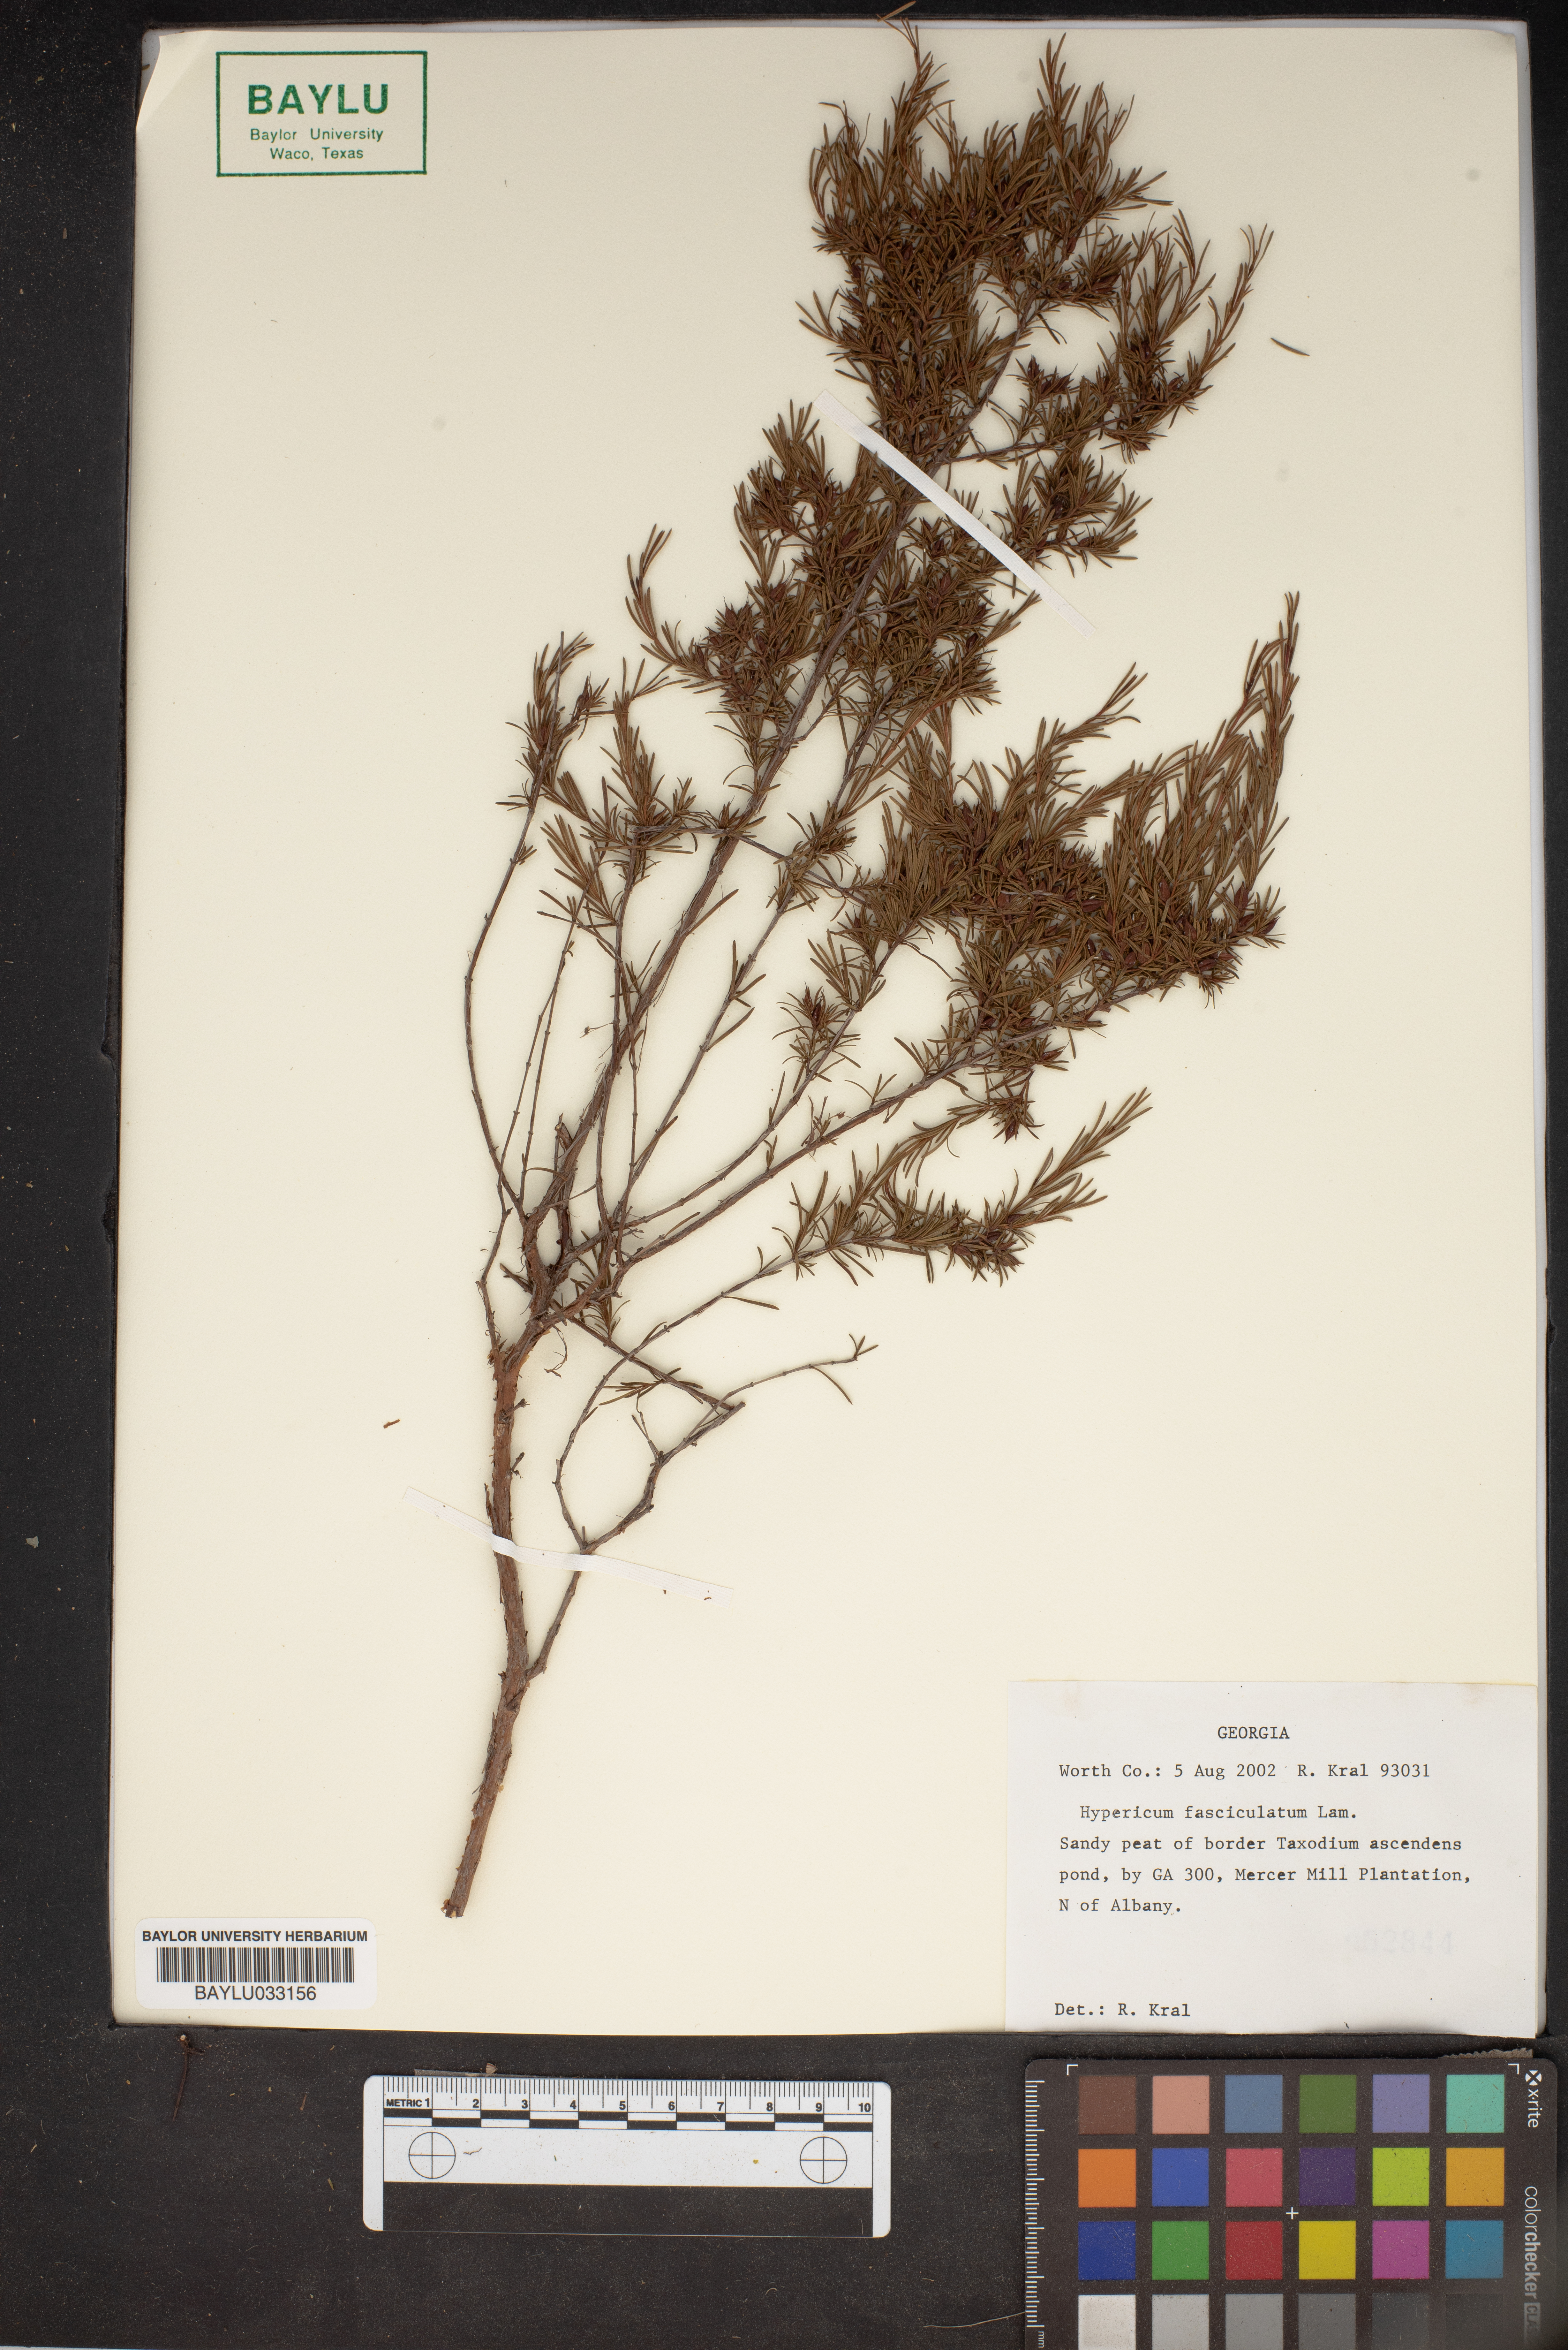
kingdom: Plantae
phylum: Tracheophyta
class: Magnoliopsida
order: Malpighiales
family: Hypericaceae
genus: Hypericum
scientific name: Hypericum fasciculatum
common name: Peelbark st. john's wort
